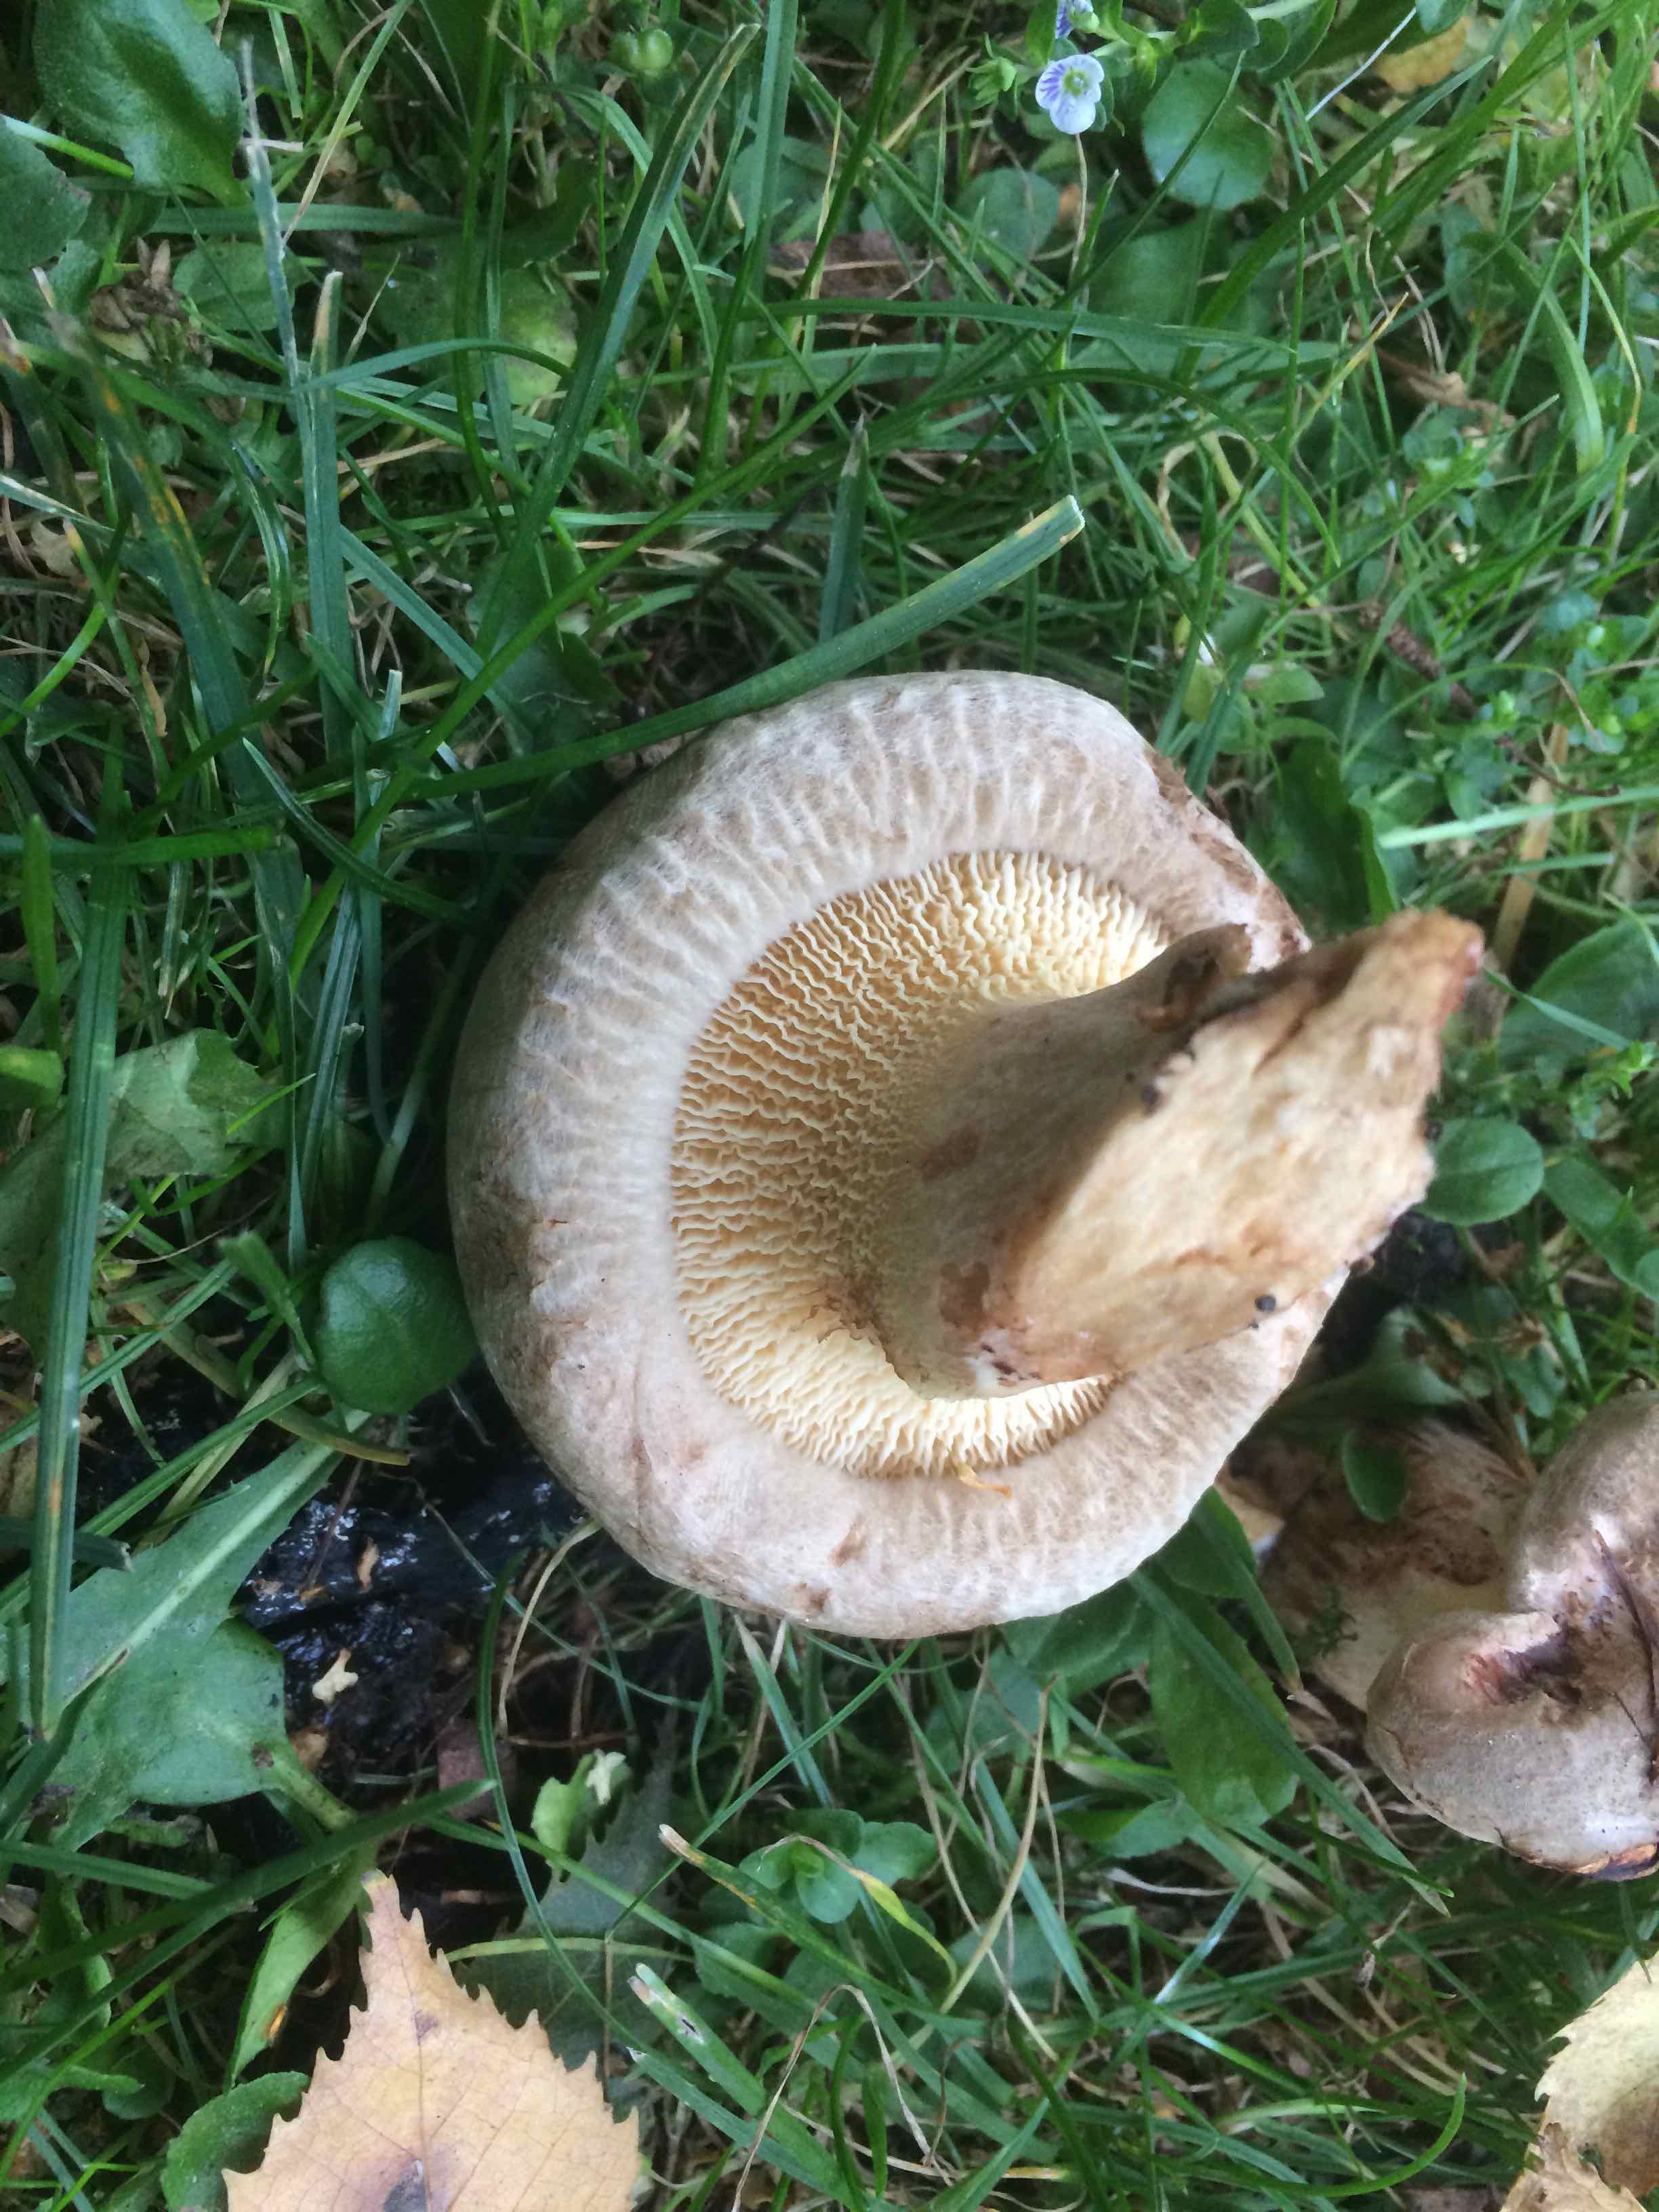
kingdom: Fungi
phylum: Basidiomycota
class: Agaricomycetes
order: Boletales
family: Paxillaceae
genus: Paxillus
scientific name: Paxillus
